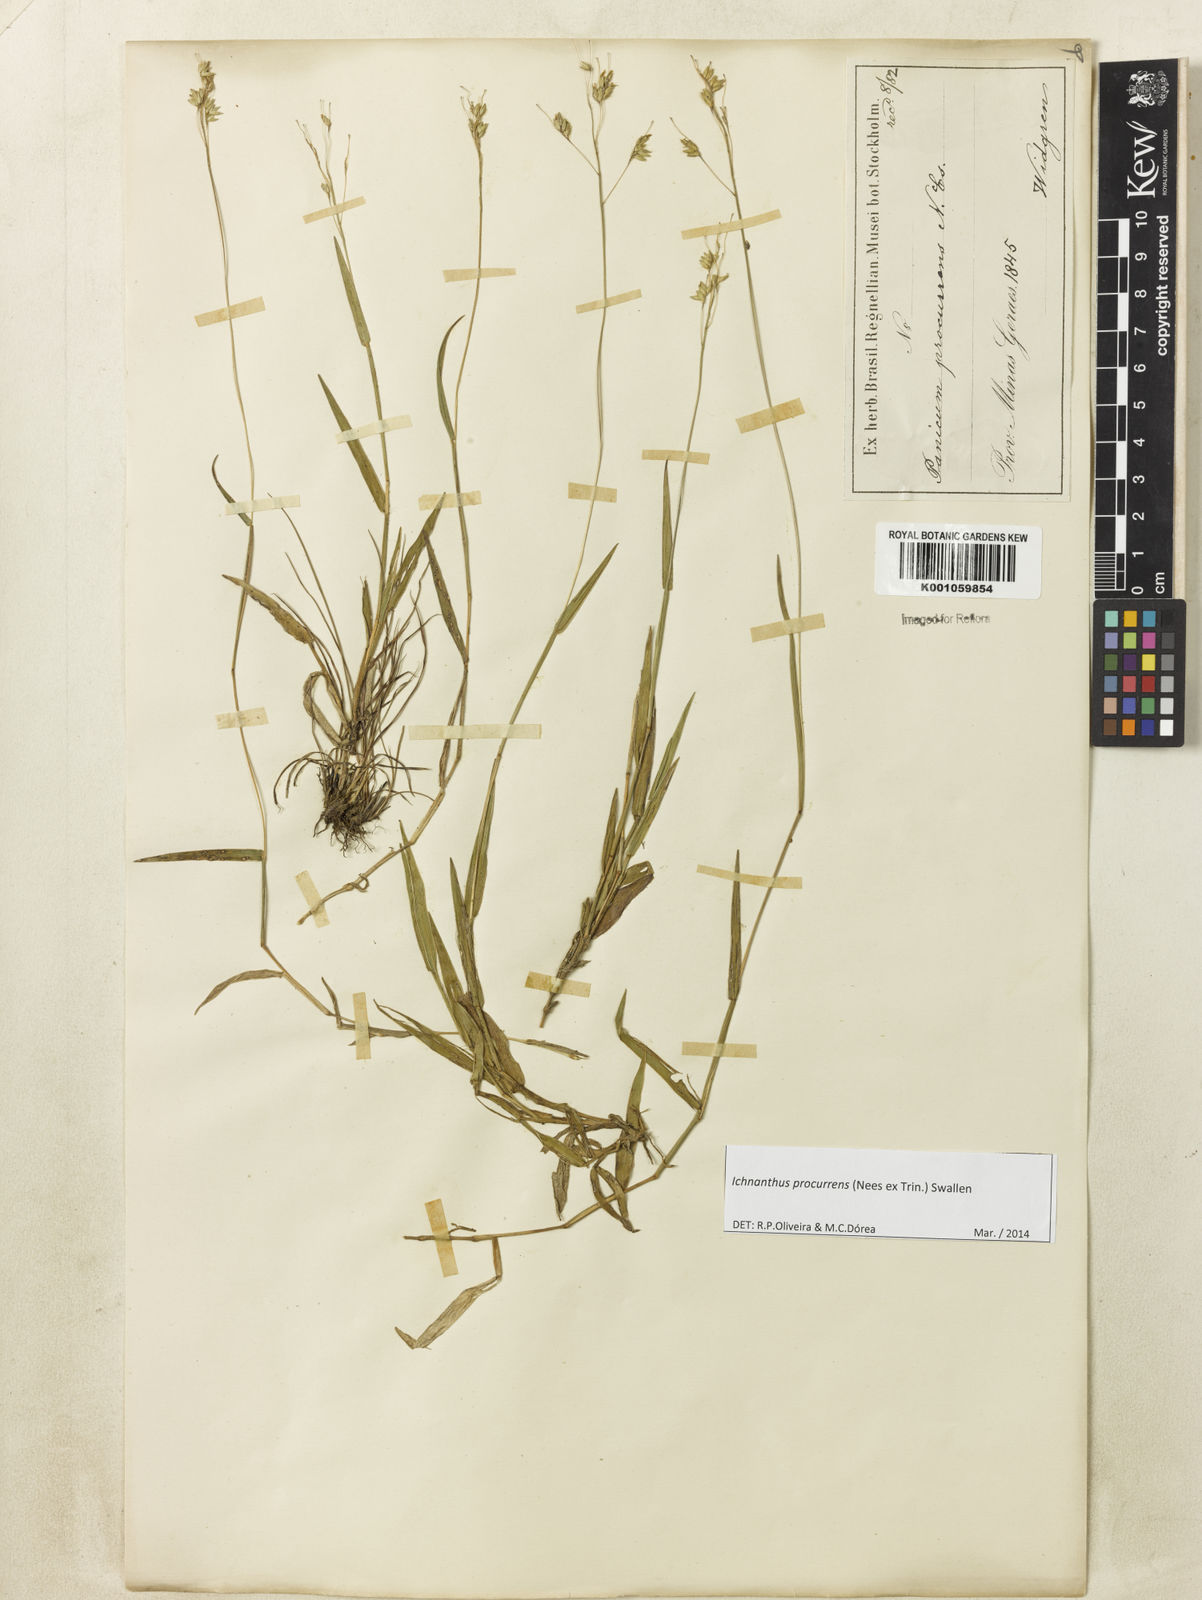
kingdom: Plantae
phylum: Tracheophyta
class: Liliopsida
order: Poales
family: Poaceae
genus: Oedochloa
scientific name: Oedochloa procurrens
